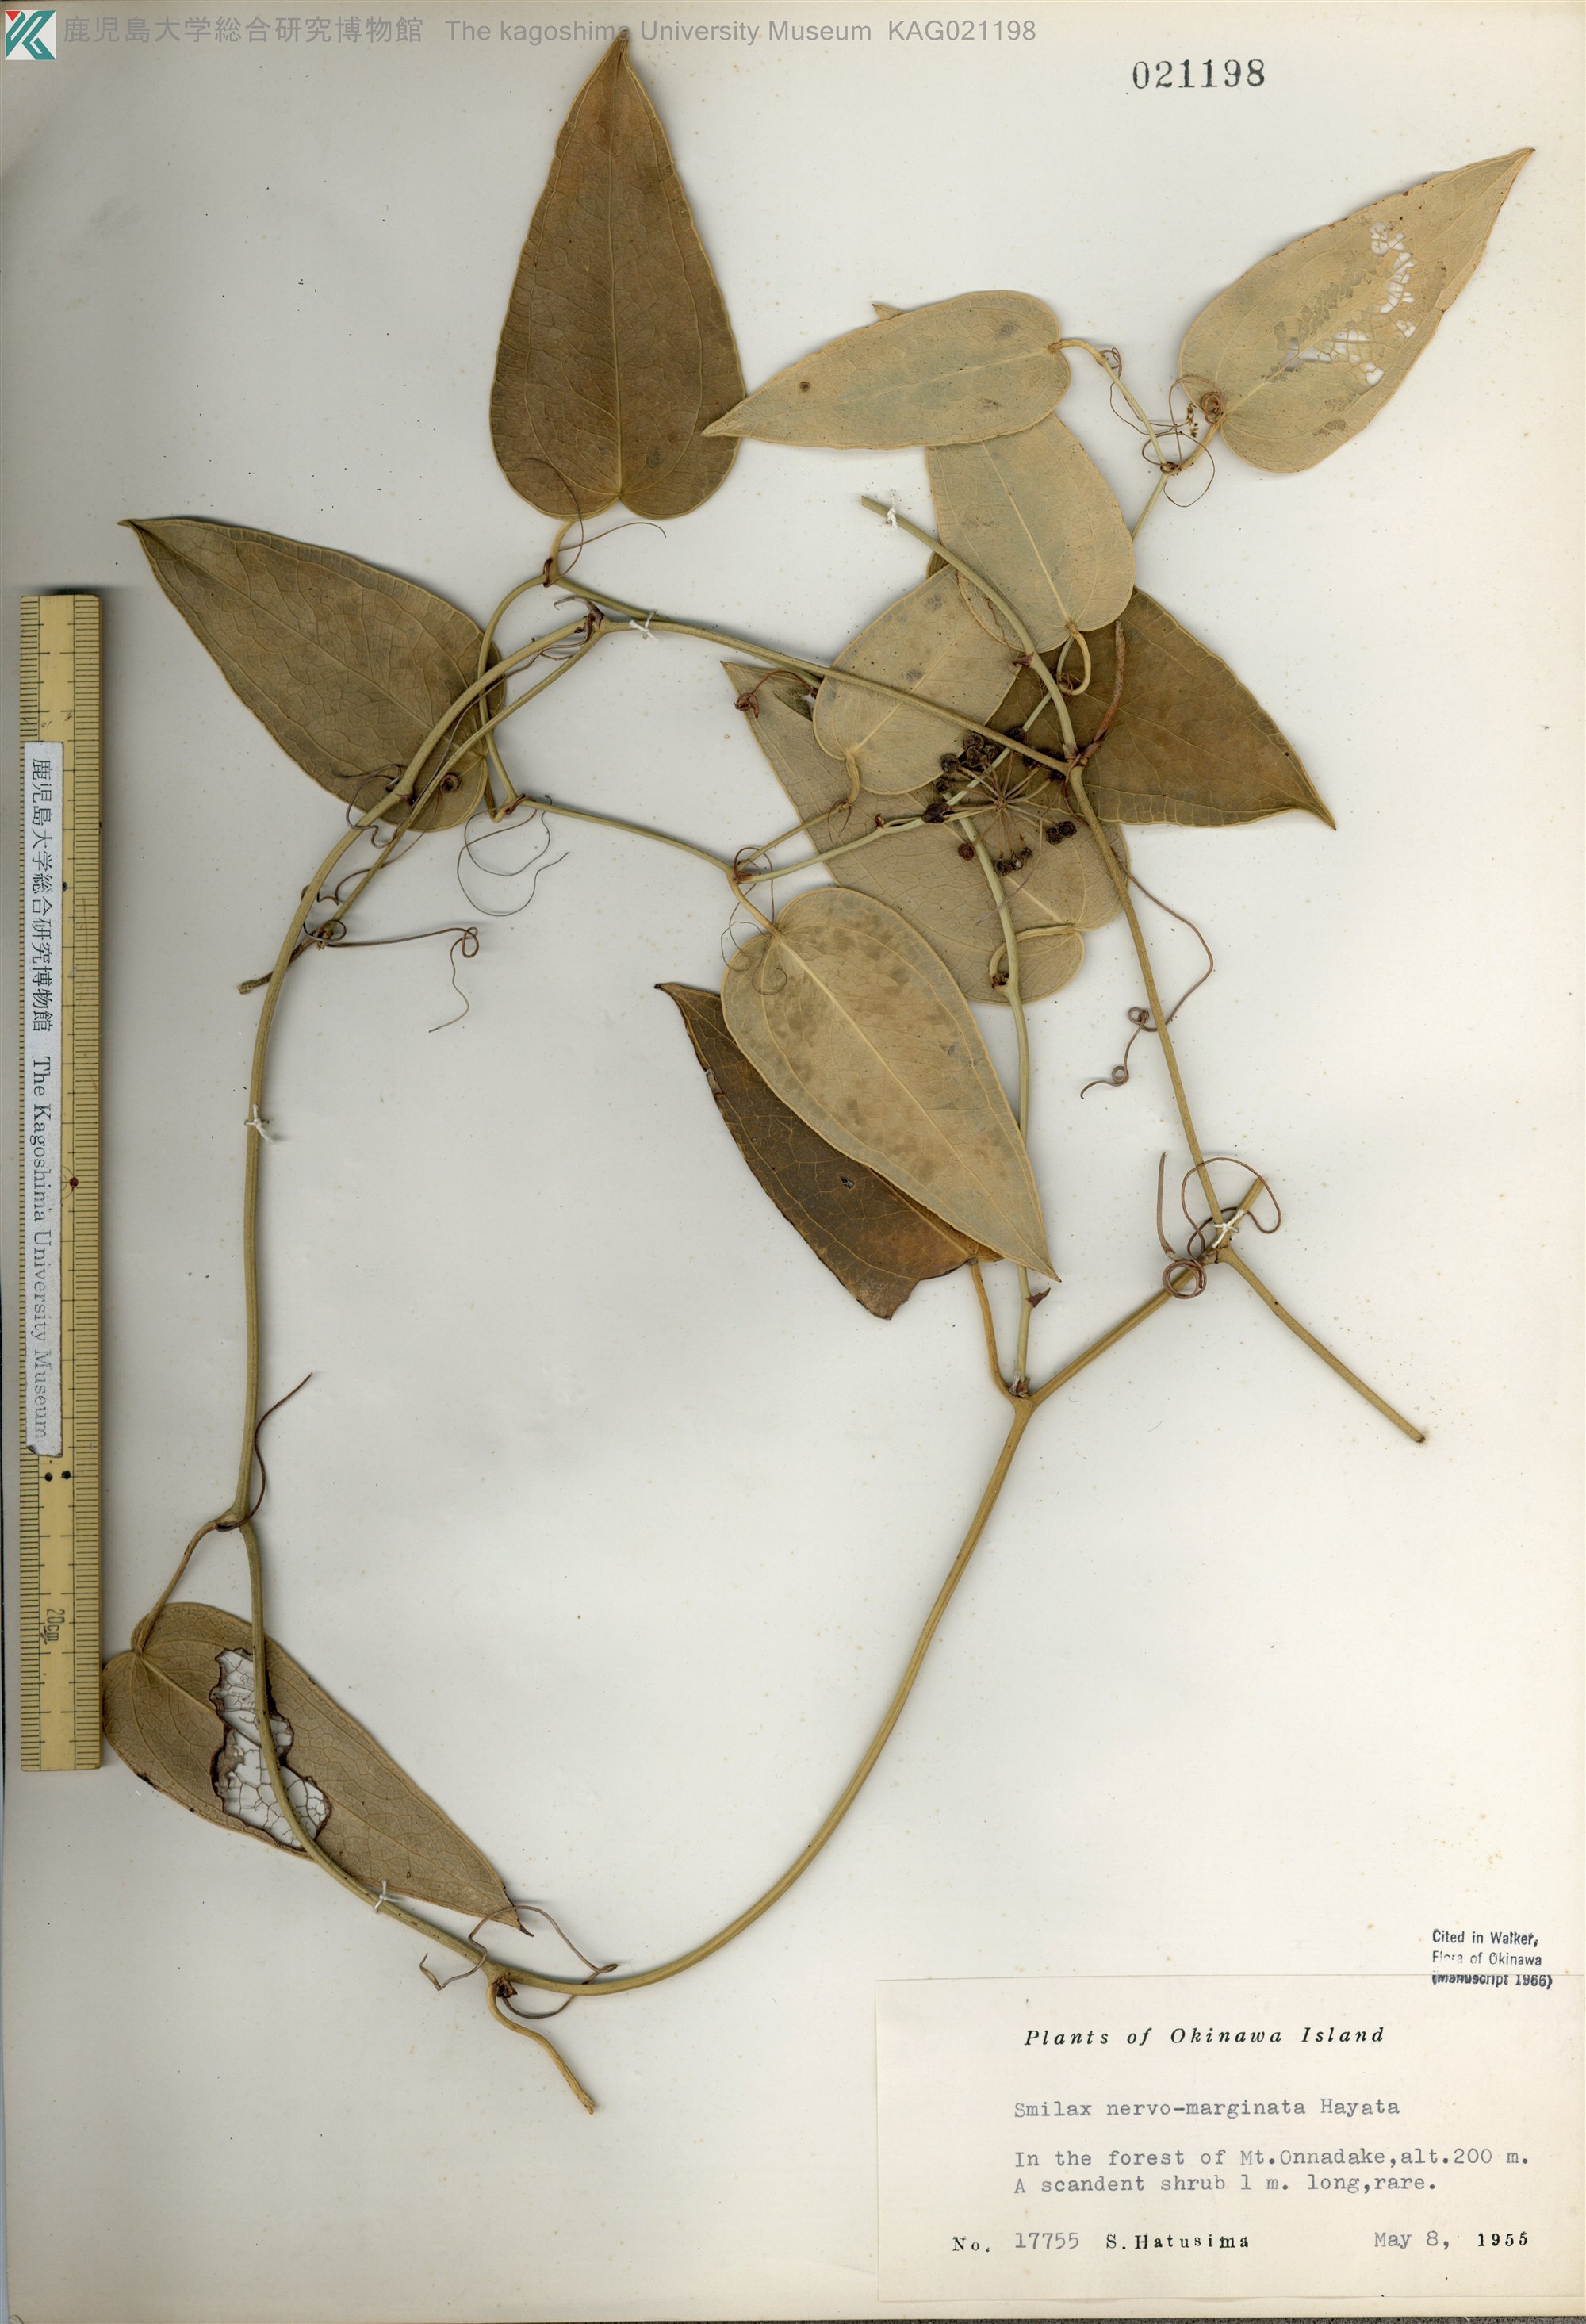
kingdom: Plantae
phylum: Tracheophyta
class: Liliopsida
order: Liliales
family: Smilacaceae
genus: Smilax
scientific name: Smilax nervomarginata
